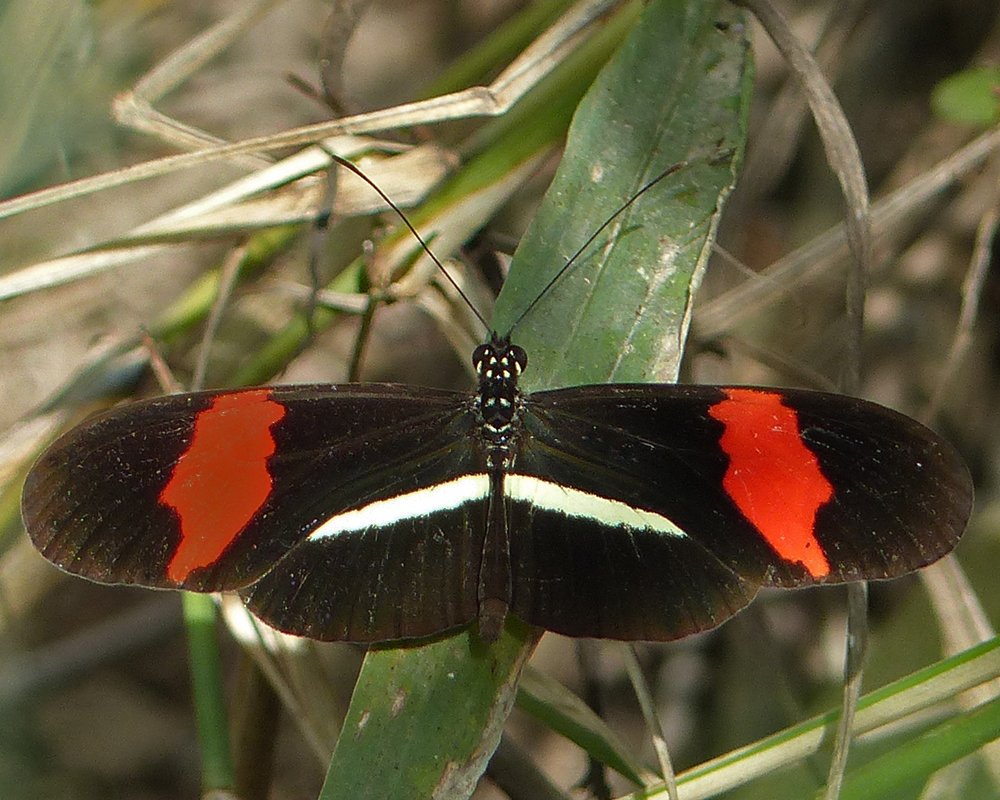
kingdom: Animalia
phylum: Arthropoda
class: Insecta
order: Lepidoptera
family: Nymphalidae
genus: Heliconius
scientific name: Heliconius erato
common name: Erato Heliconian
